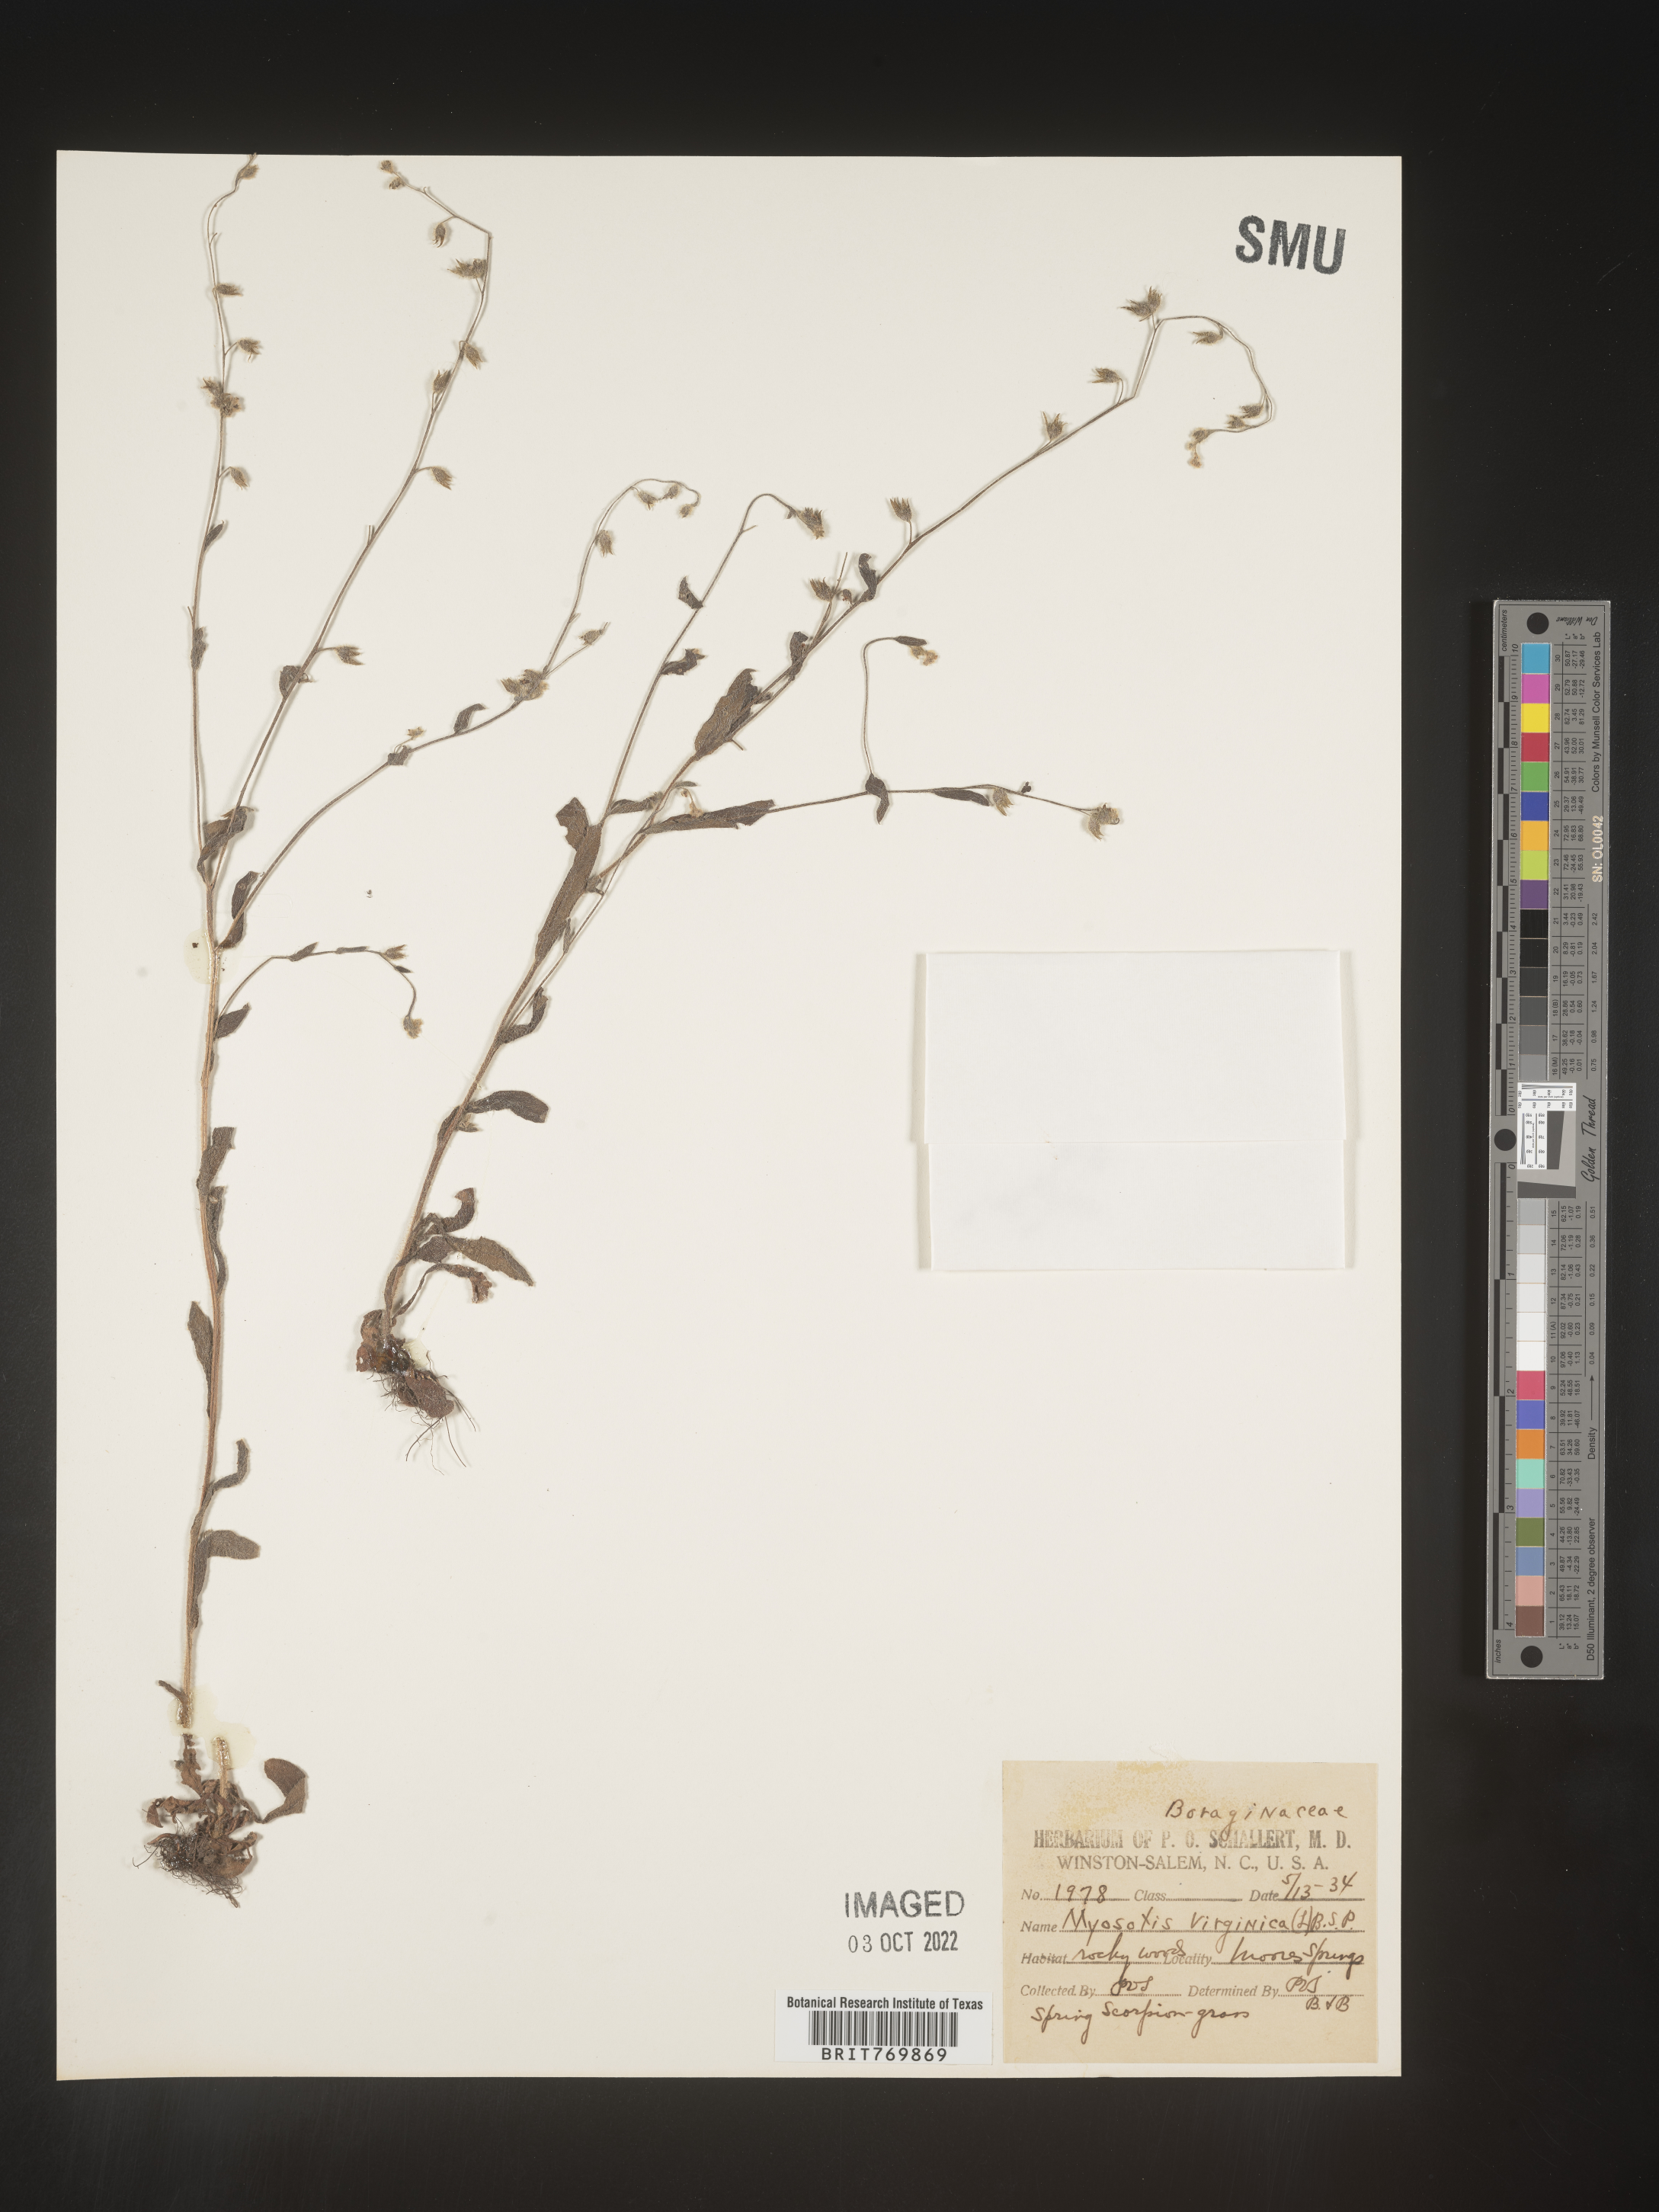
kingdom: Plantae
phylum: Tracheophyta
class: Magnoliopsida
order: Boraginales
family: Boraginaceae
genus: Myosotis
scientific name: Myosotis
